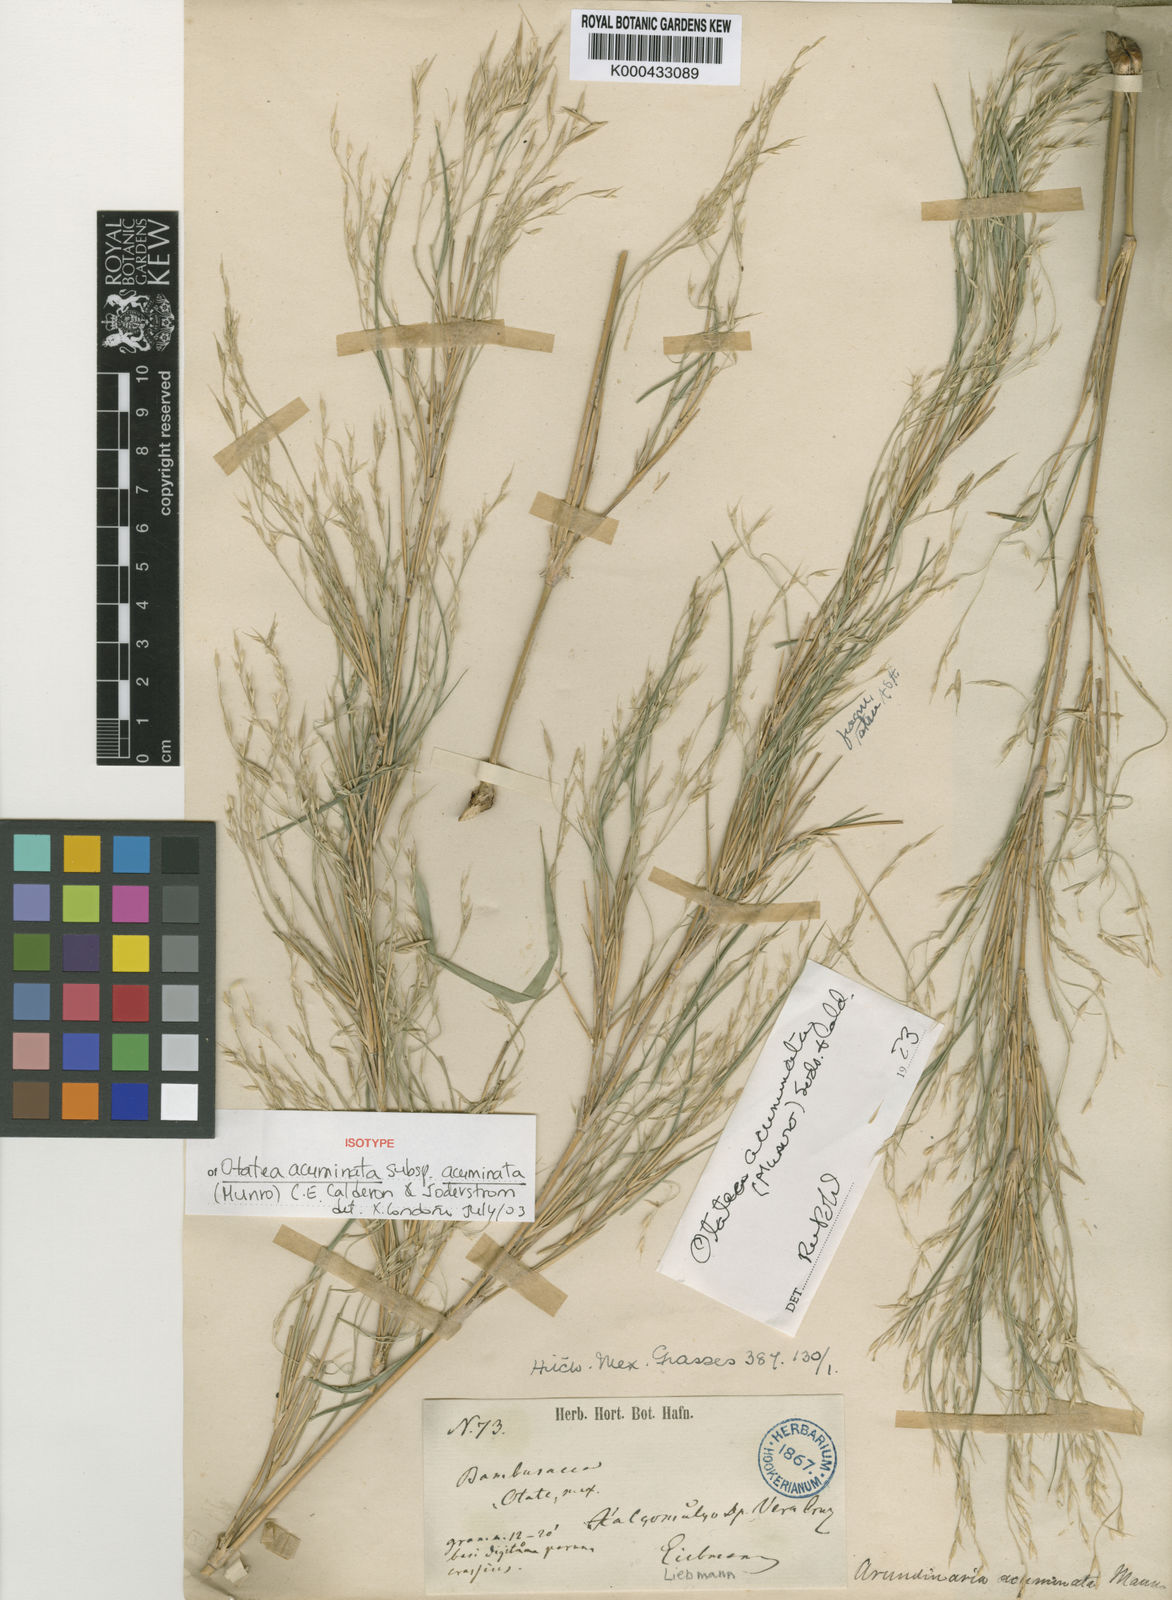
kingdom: Plantae
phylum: Tracheophyta
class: Liliopsida
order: Poales
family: Poaceae
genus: Otatea
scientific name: Otatea acuminata
